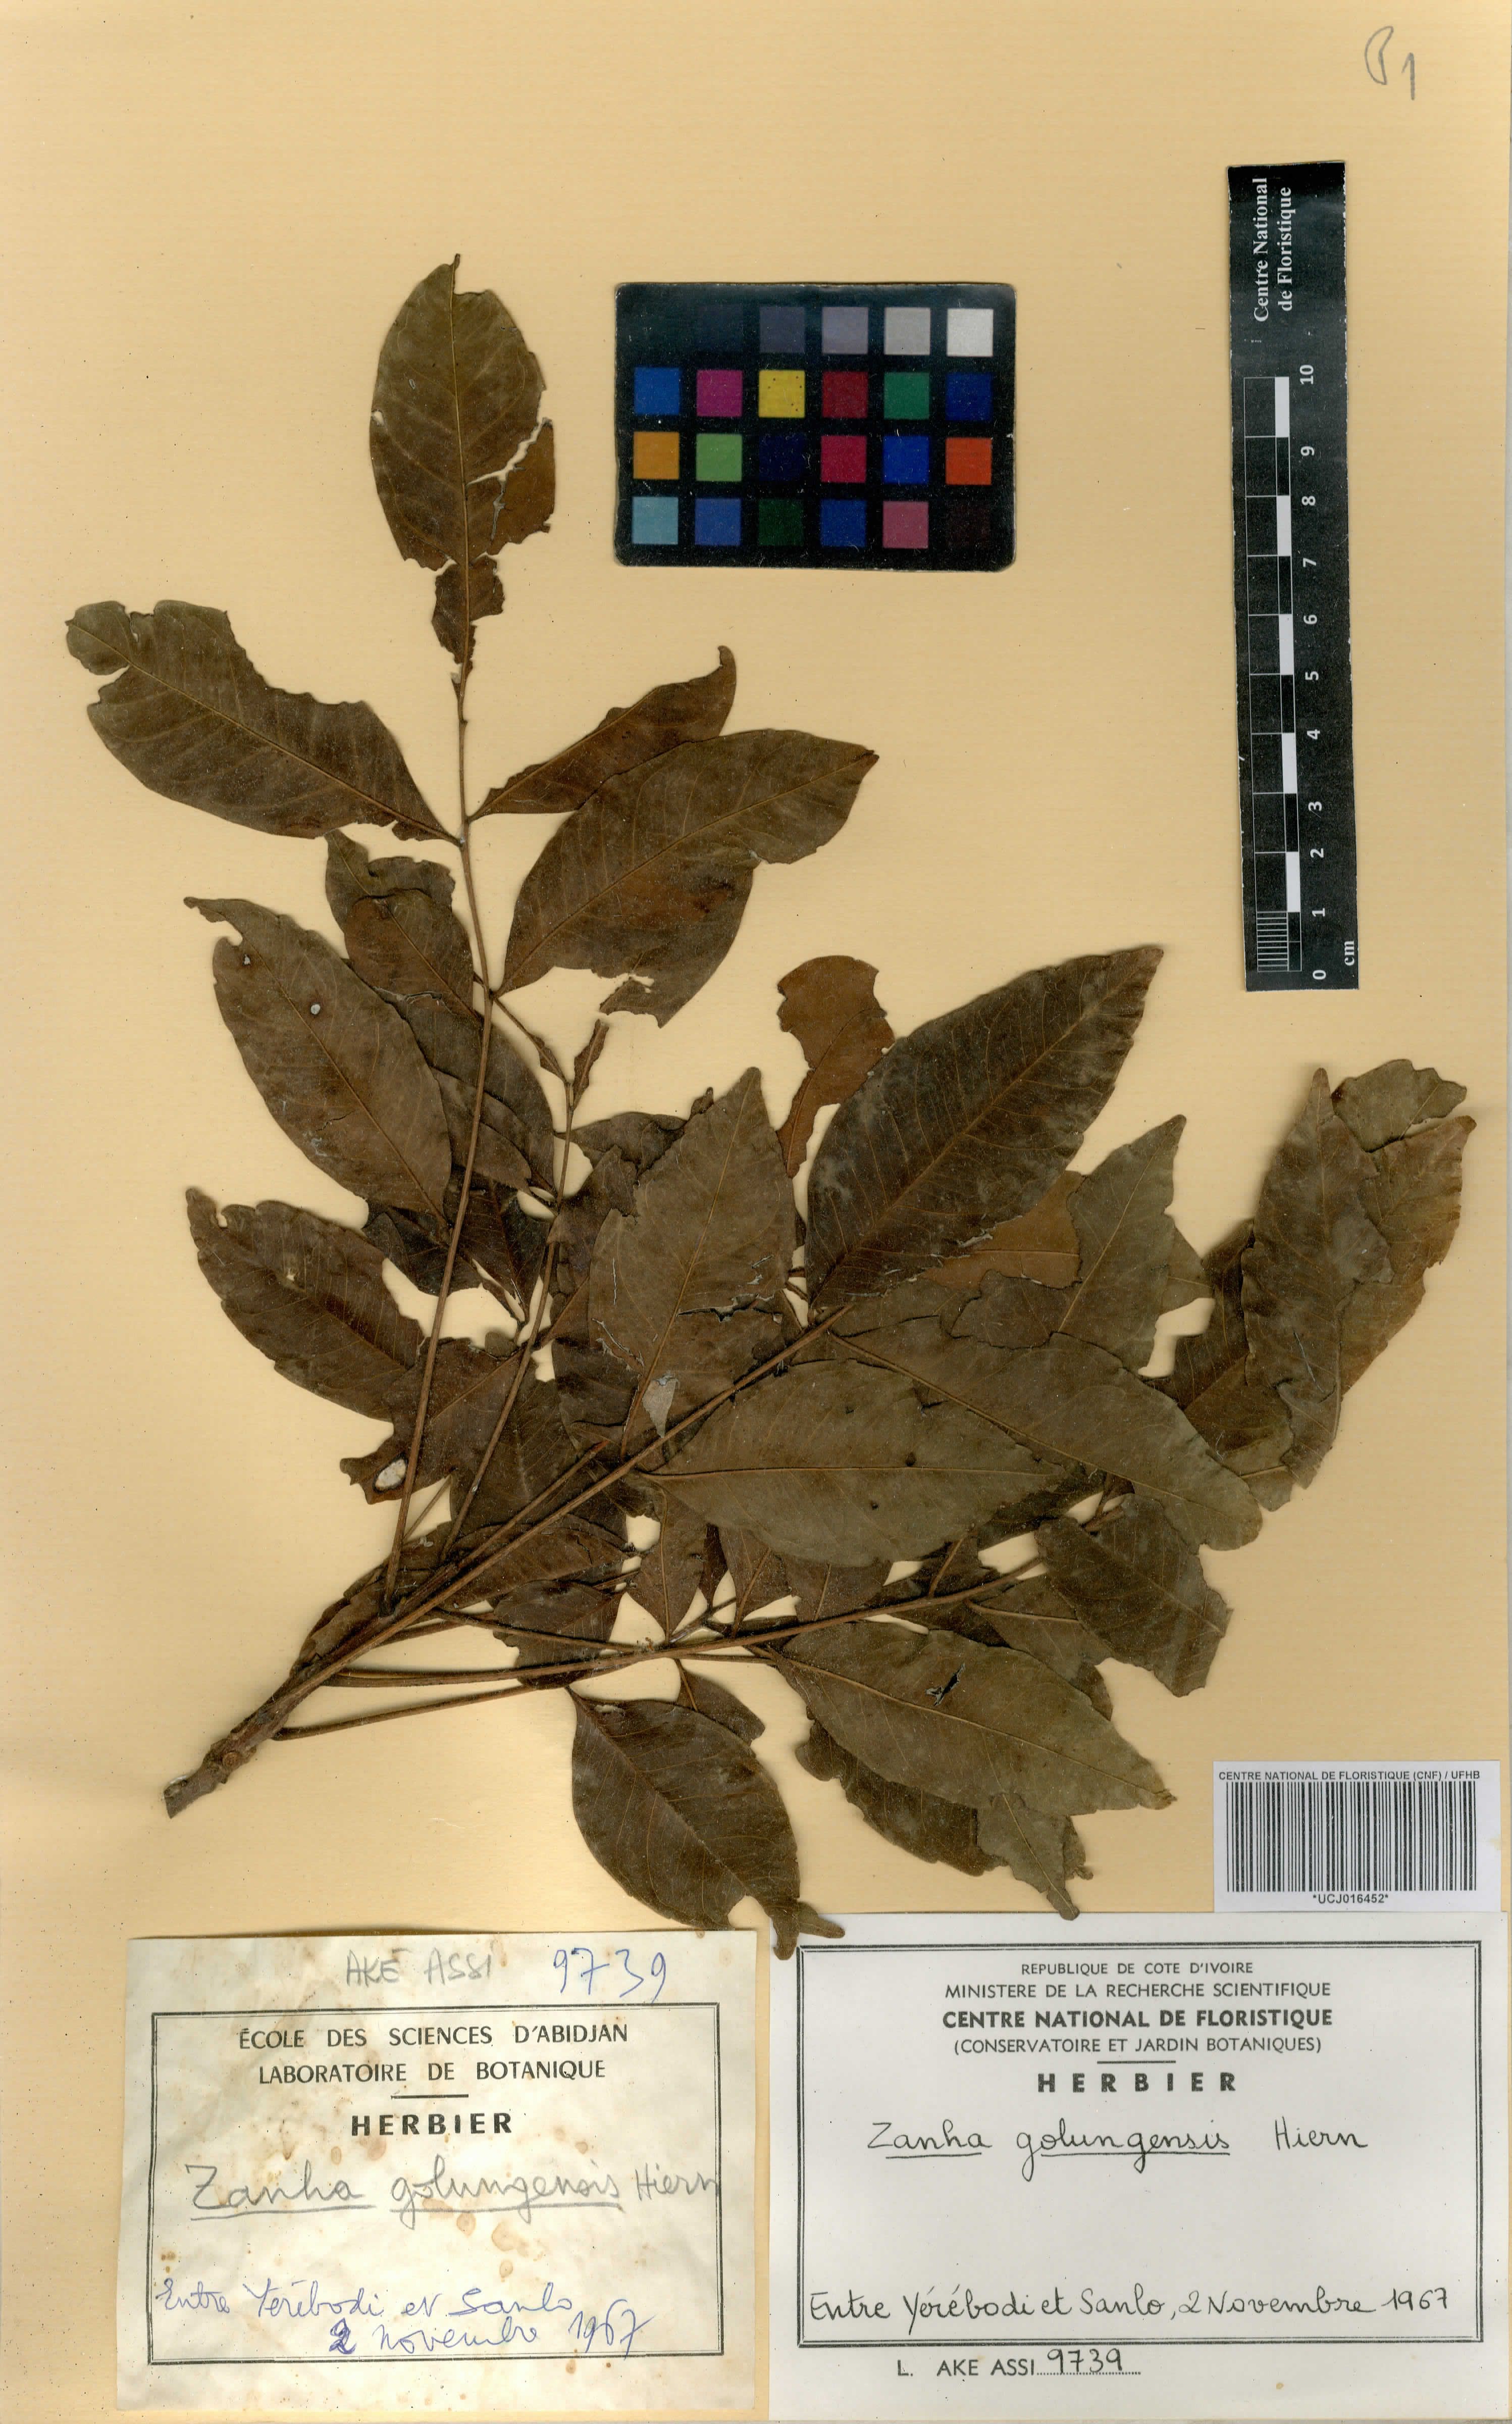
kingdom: Plantae
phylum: Tracheophyta
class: Magnoliopsida
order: Sapindales
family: Sapindaceae
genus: Zanha
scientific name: Zanha golungensis
